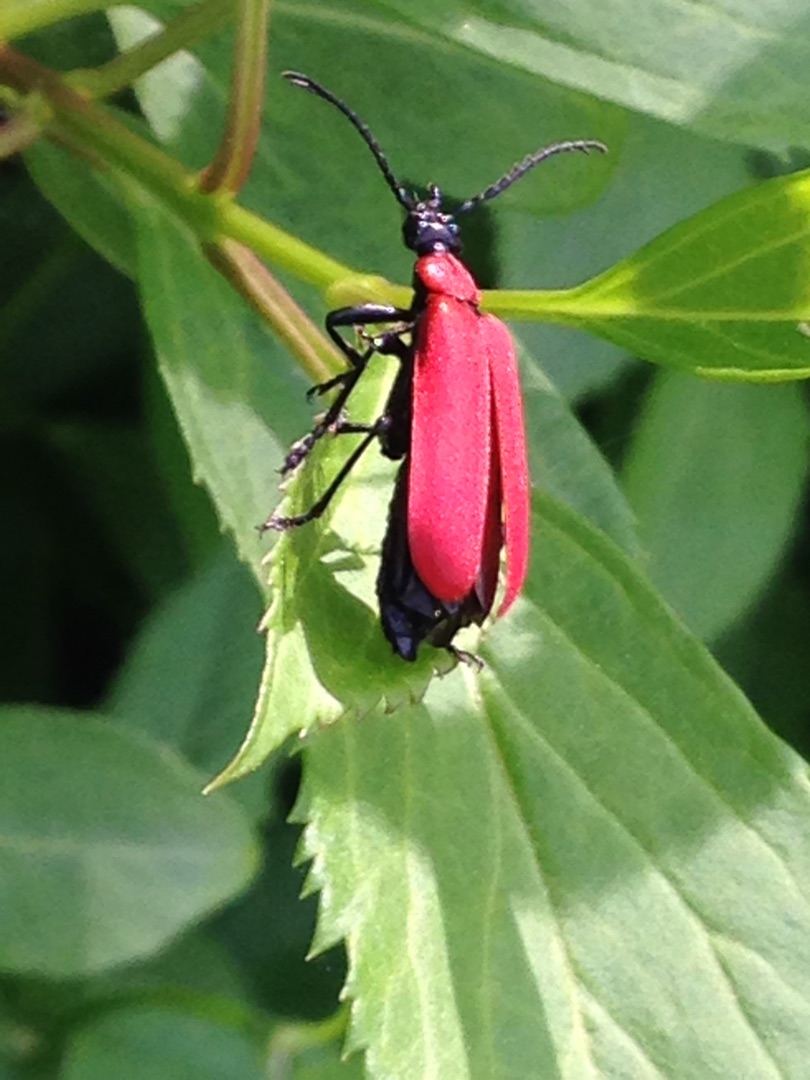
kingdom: Animalia
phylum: Arthropoda
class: Insecta
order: Coleoptera
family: Pyrochroidae
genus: Pyrochroa
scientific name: Pyrochroa coccinea
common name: Sorthovedet kardinalbille
